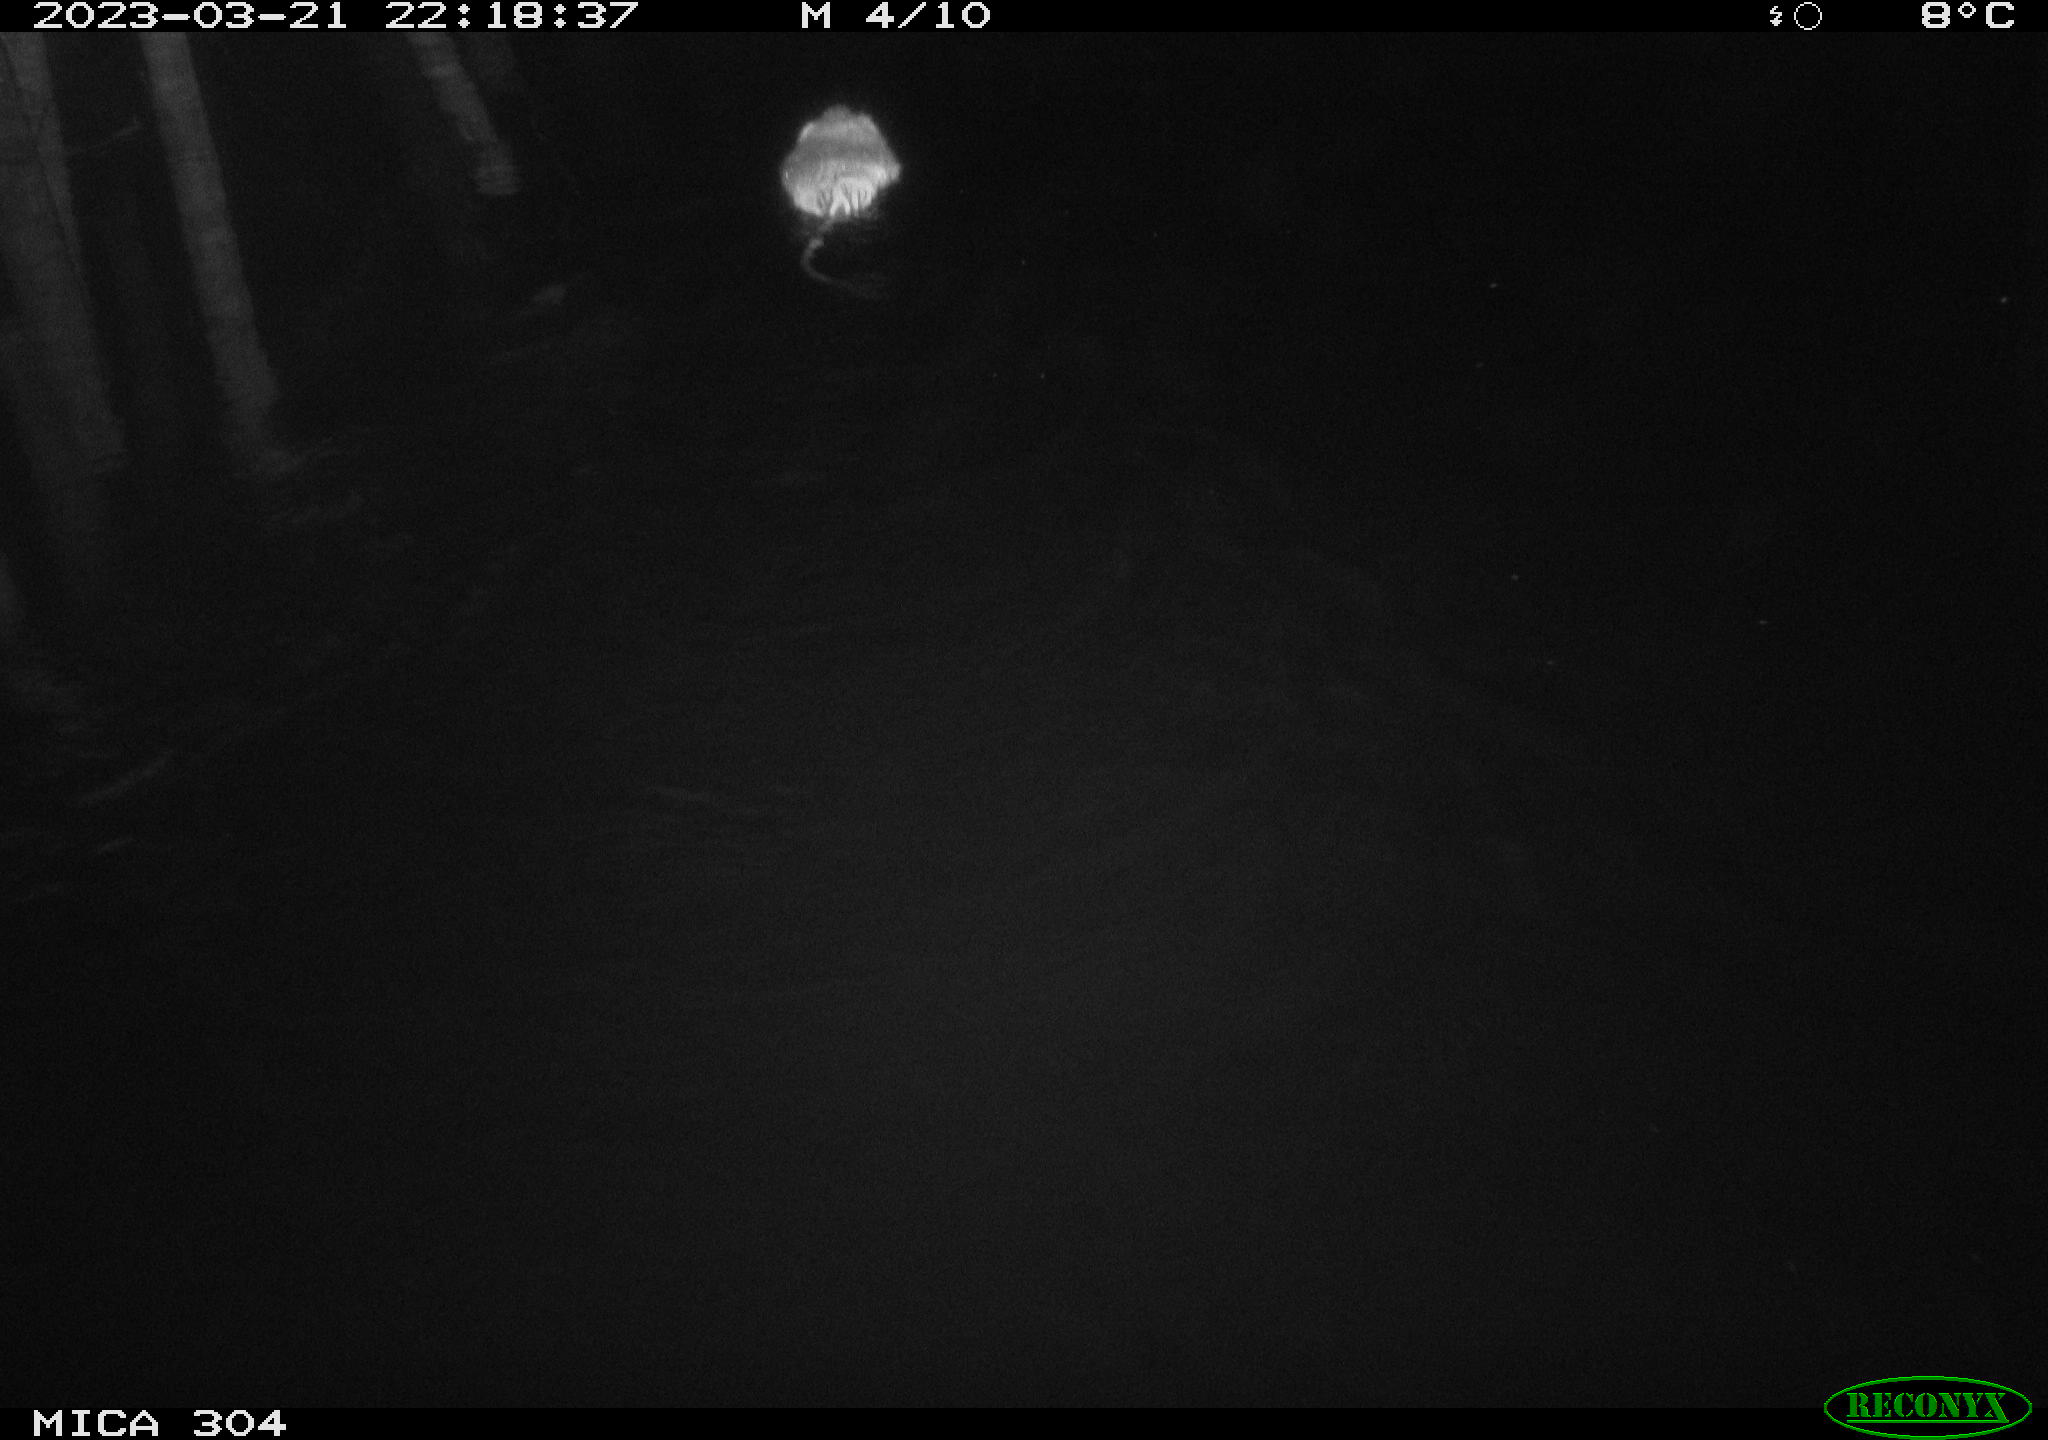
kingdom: Animalia
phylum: Chordata
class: Mammalia
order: Rodentia
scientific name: Rodentia
